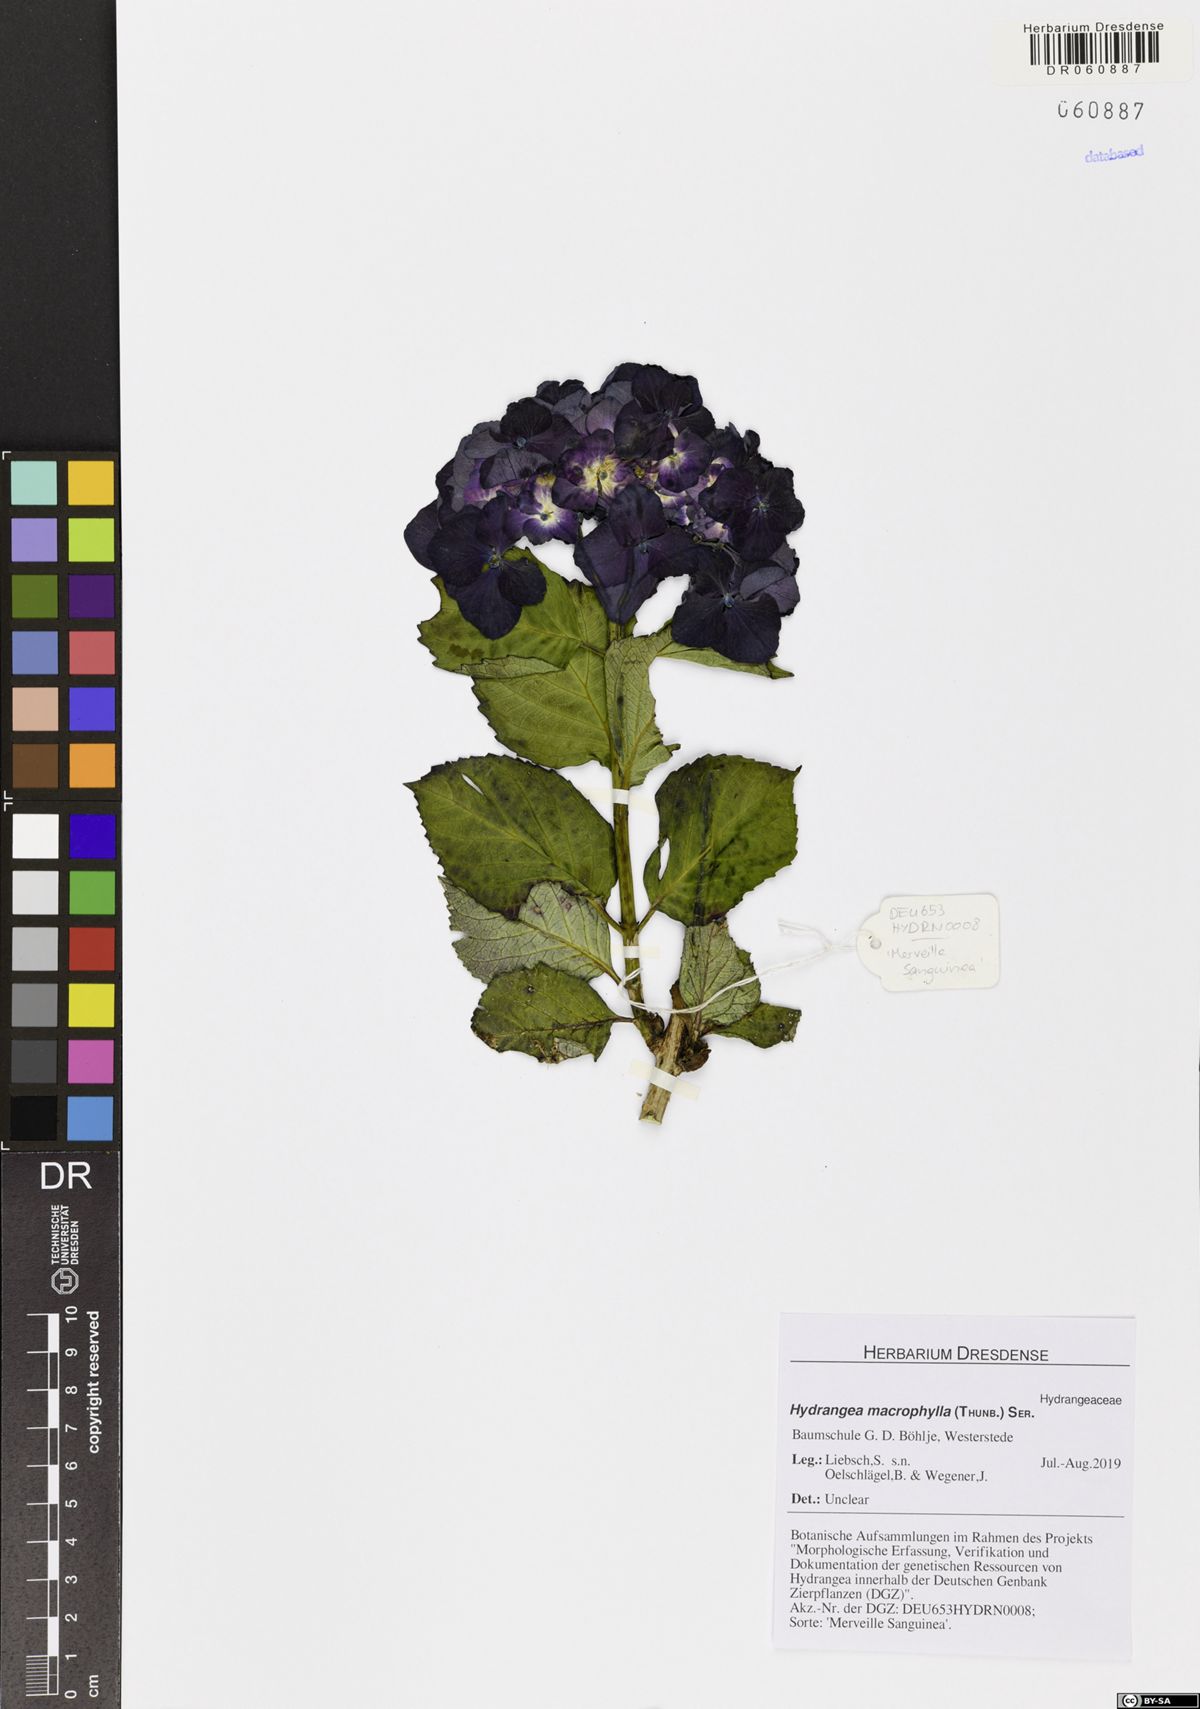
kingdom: Plantae
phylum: Tracheophyta
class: Magnoliopsida
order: Cornales
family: Hydrangeaceae
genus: Hydrangea
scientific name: Hydrangea macrophylla
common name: Hydrangea
